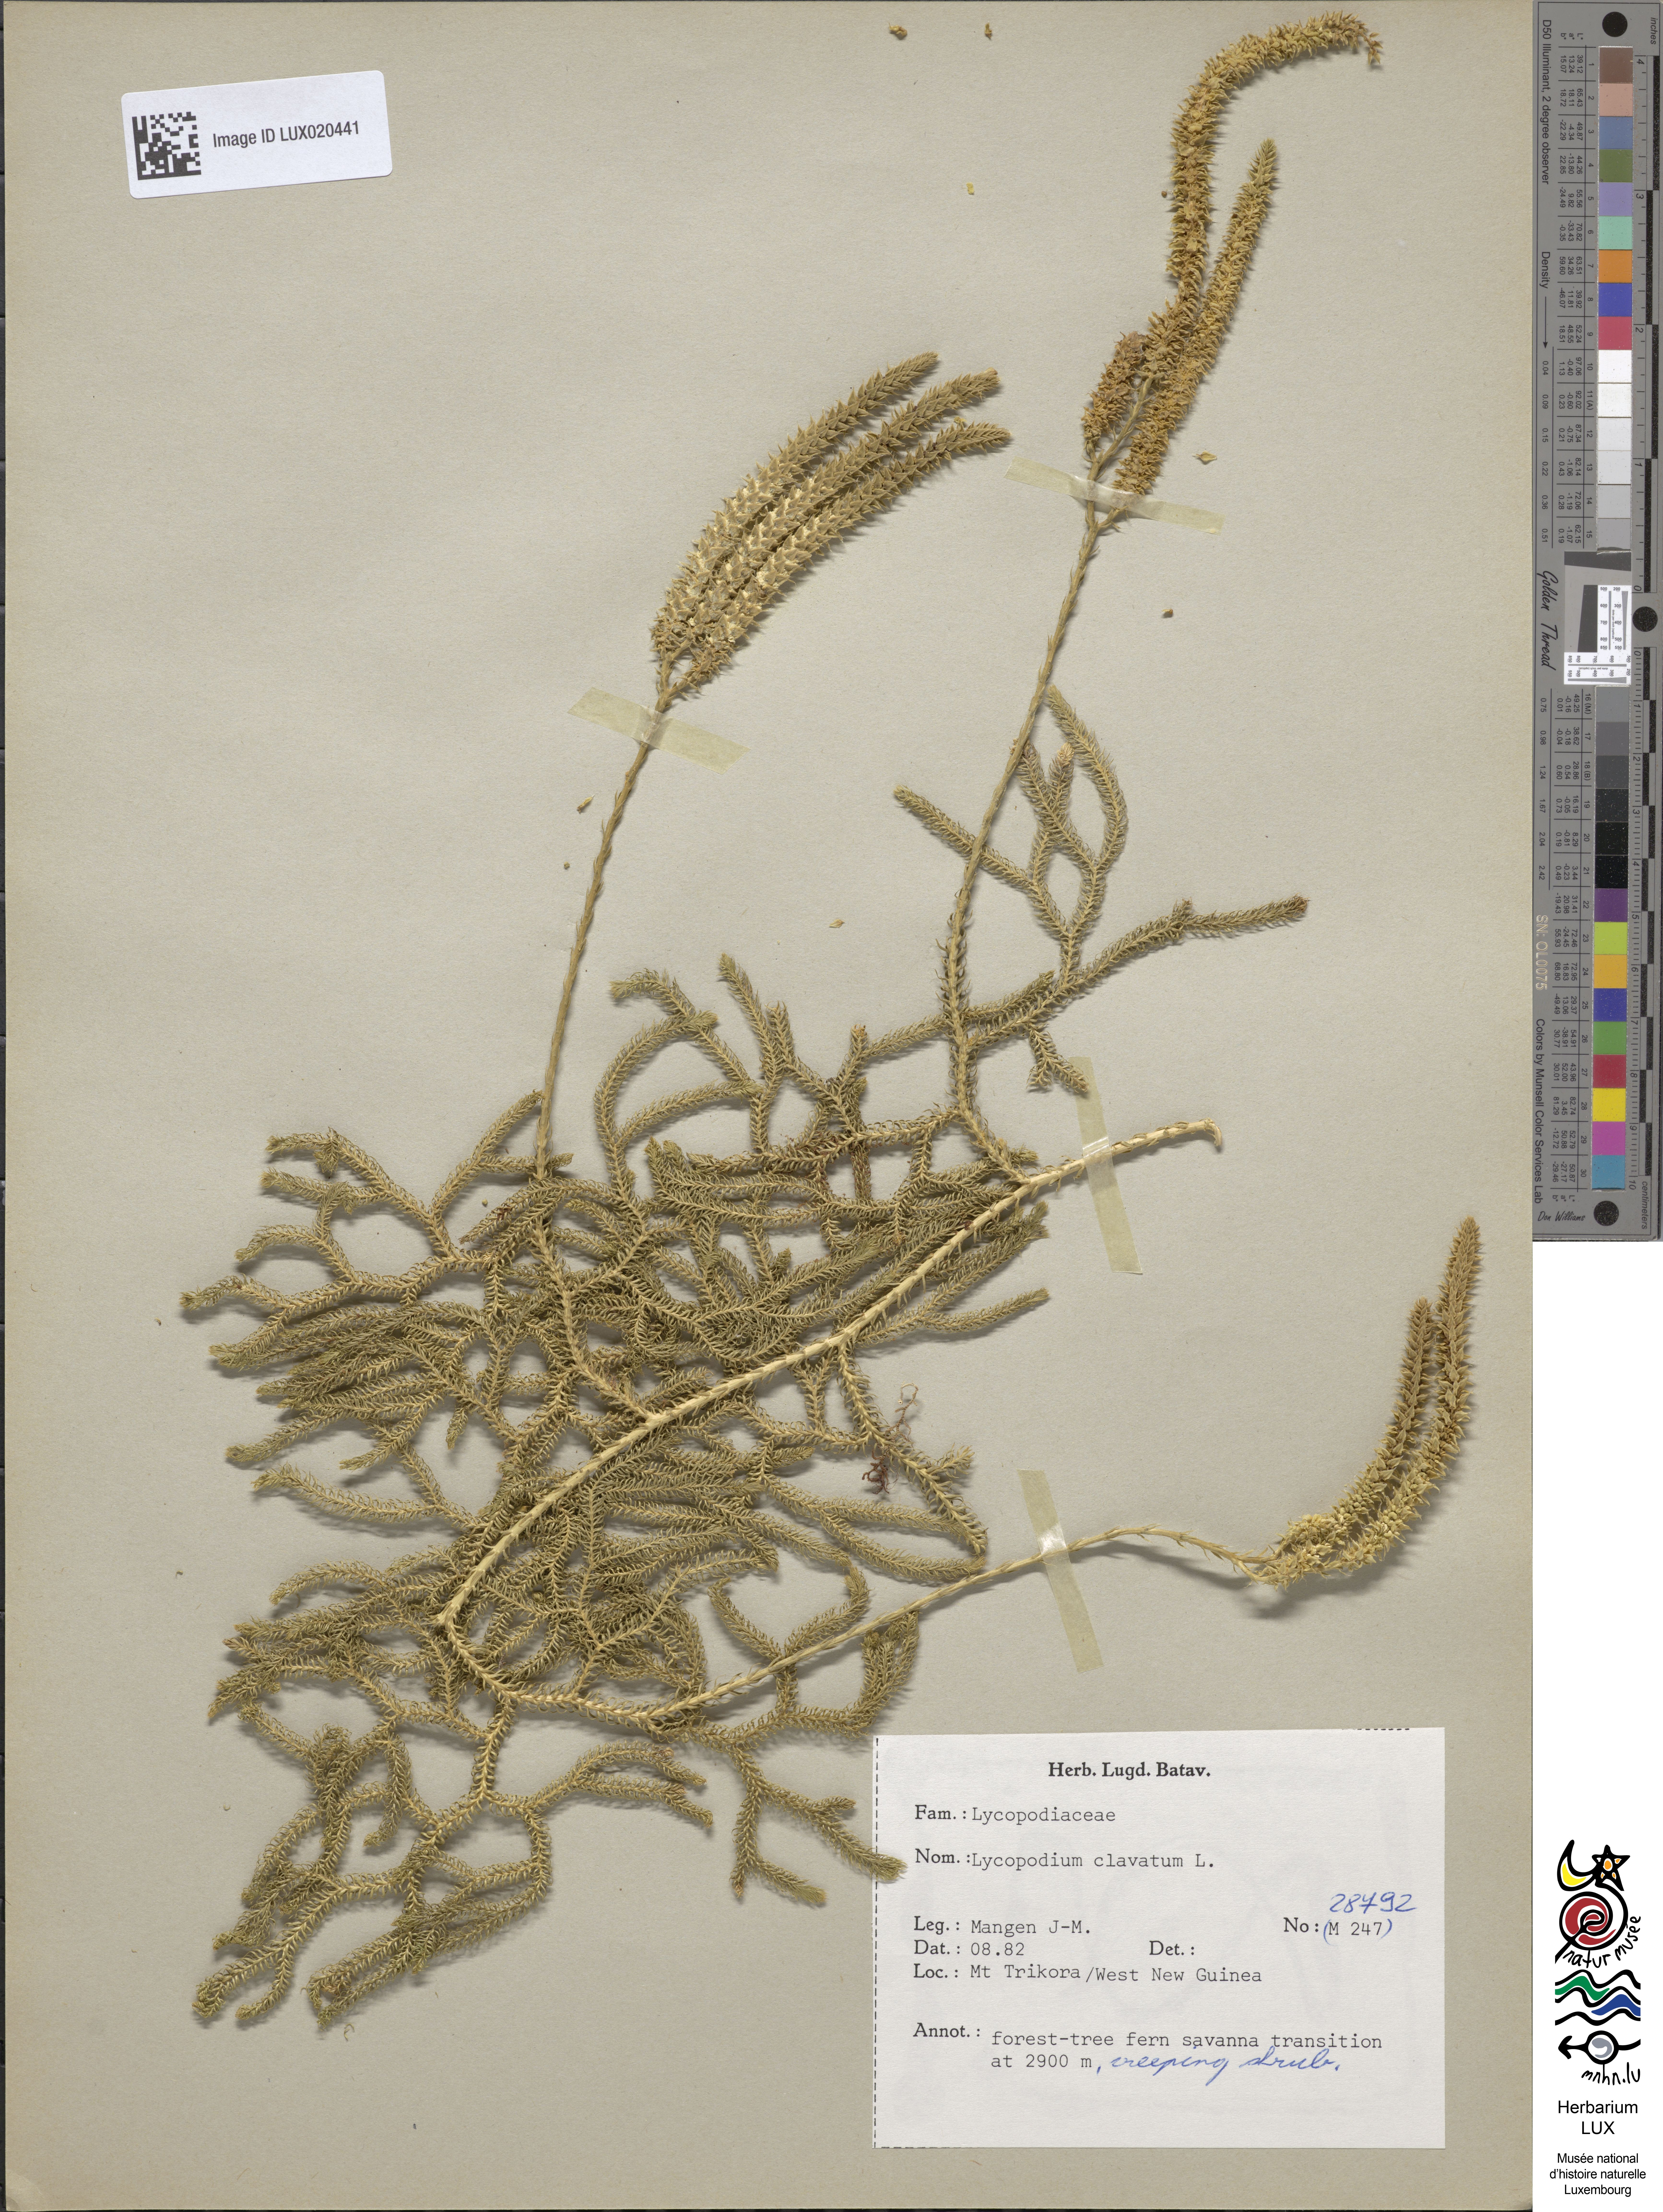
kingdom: Plantae
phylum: Tracheophyta
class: Lycopodiopsida
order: Lycopodiales
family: Lycopodiaceae
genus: Lycopodium
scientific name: Lycopodium clavatum
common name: Stag's-horn clubmoss
